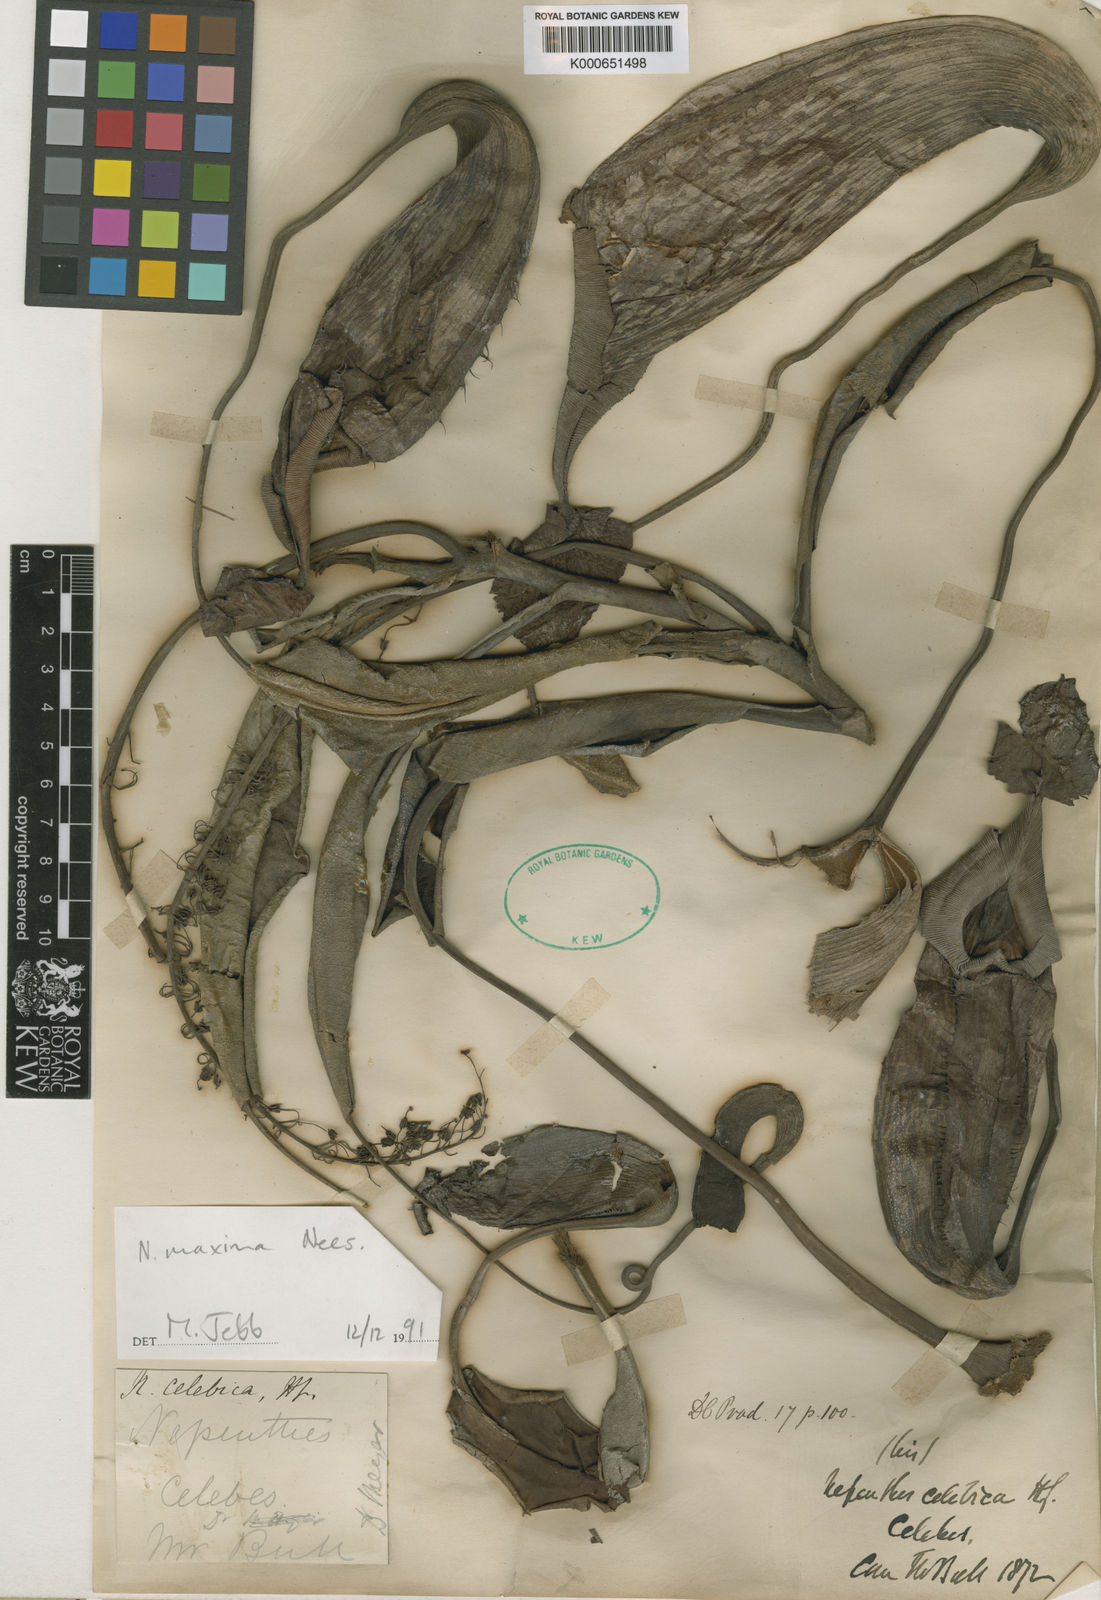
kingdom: Plantae
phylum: Tracheophyta
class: Magnoliopsida
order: Caryophyllales
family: Nepenthaceae
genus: Nepenthes
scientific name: Nepenthes
